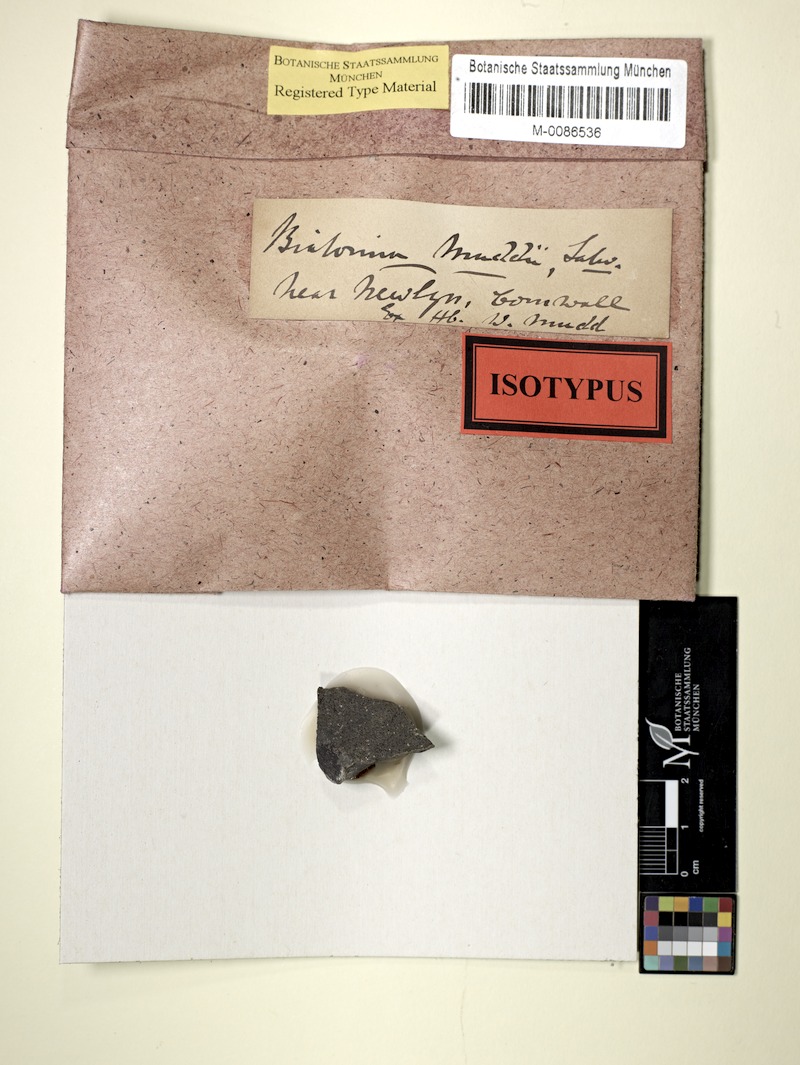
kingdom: Fungi
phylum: Ascomycota
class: Lecanoromycetes
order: Teloschistales
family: Leprocaulaceae
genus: Halecania
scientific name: Halecania ralfsii
